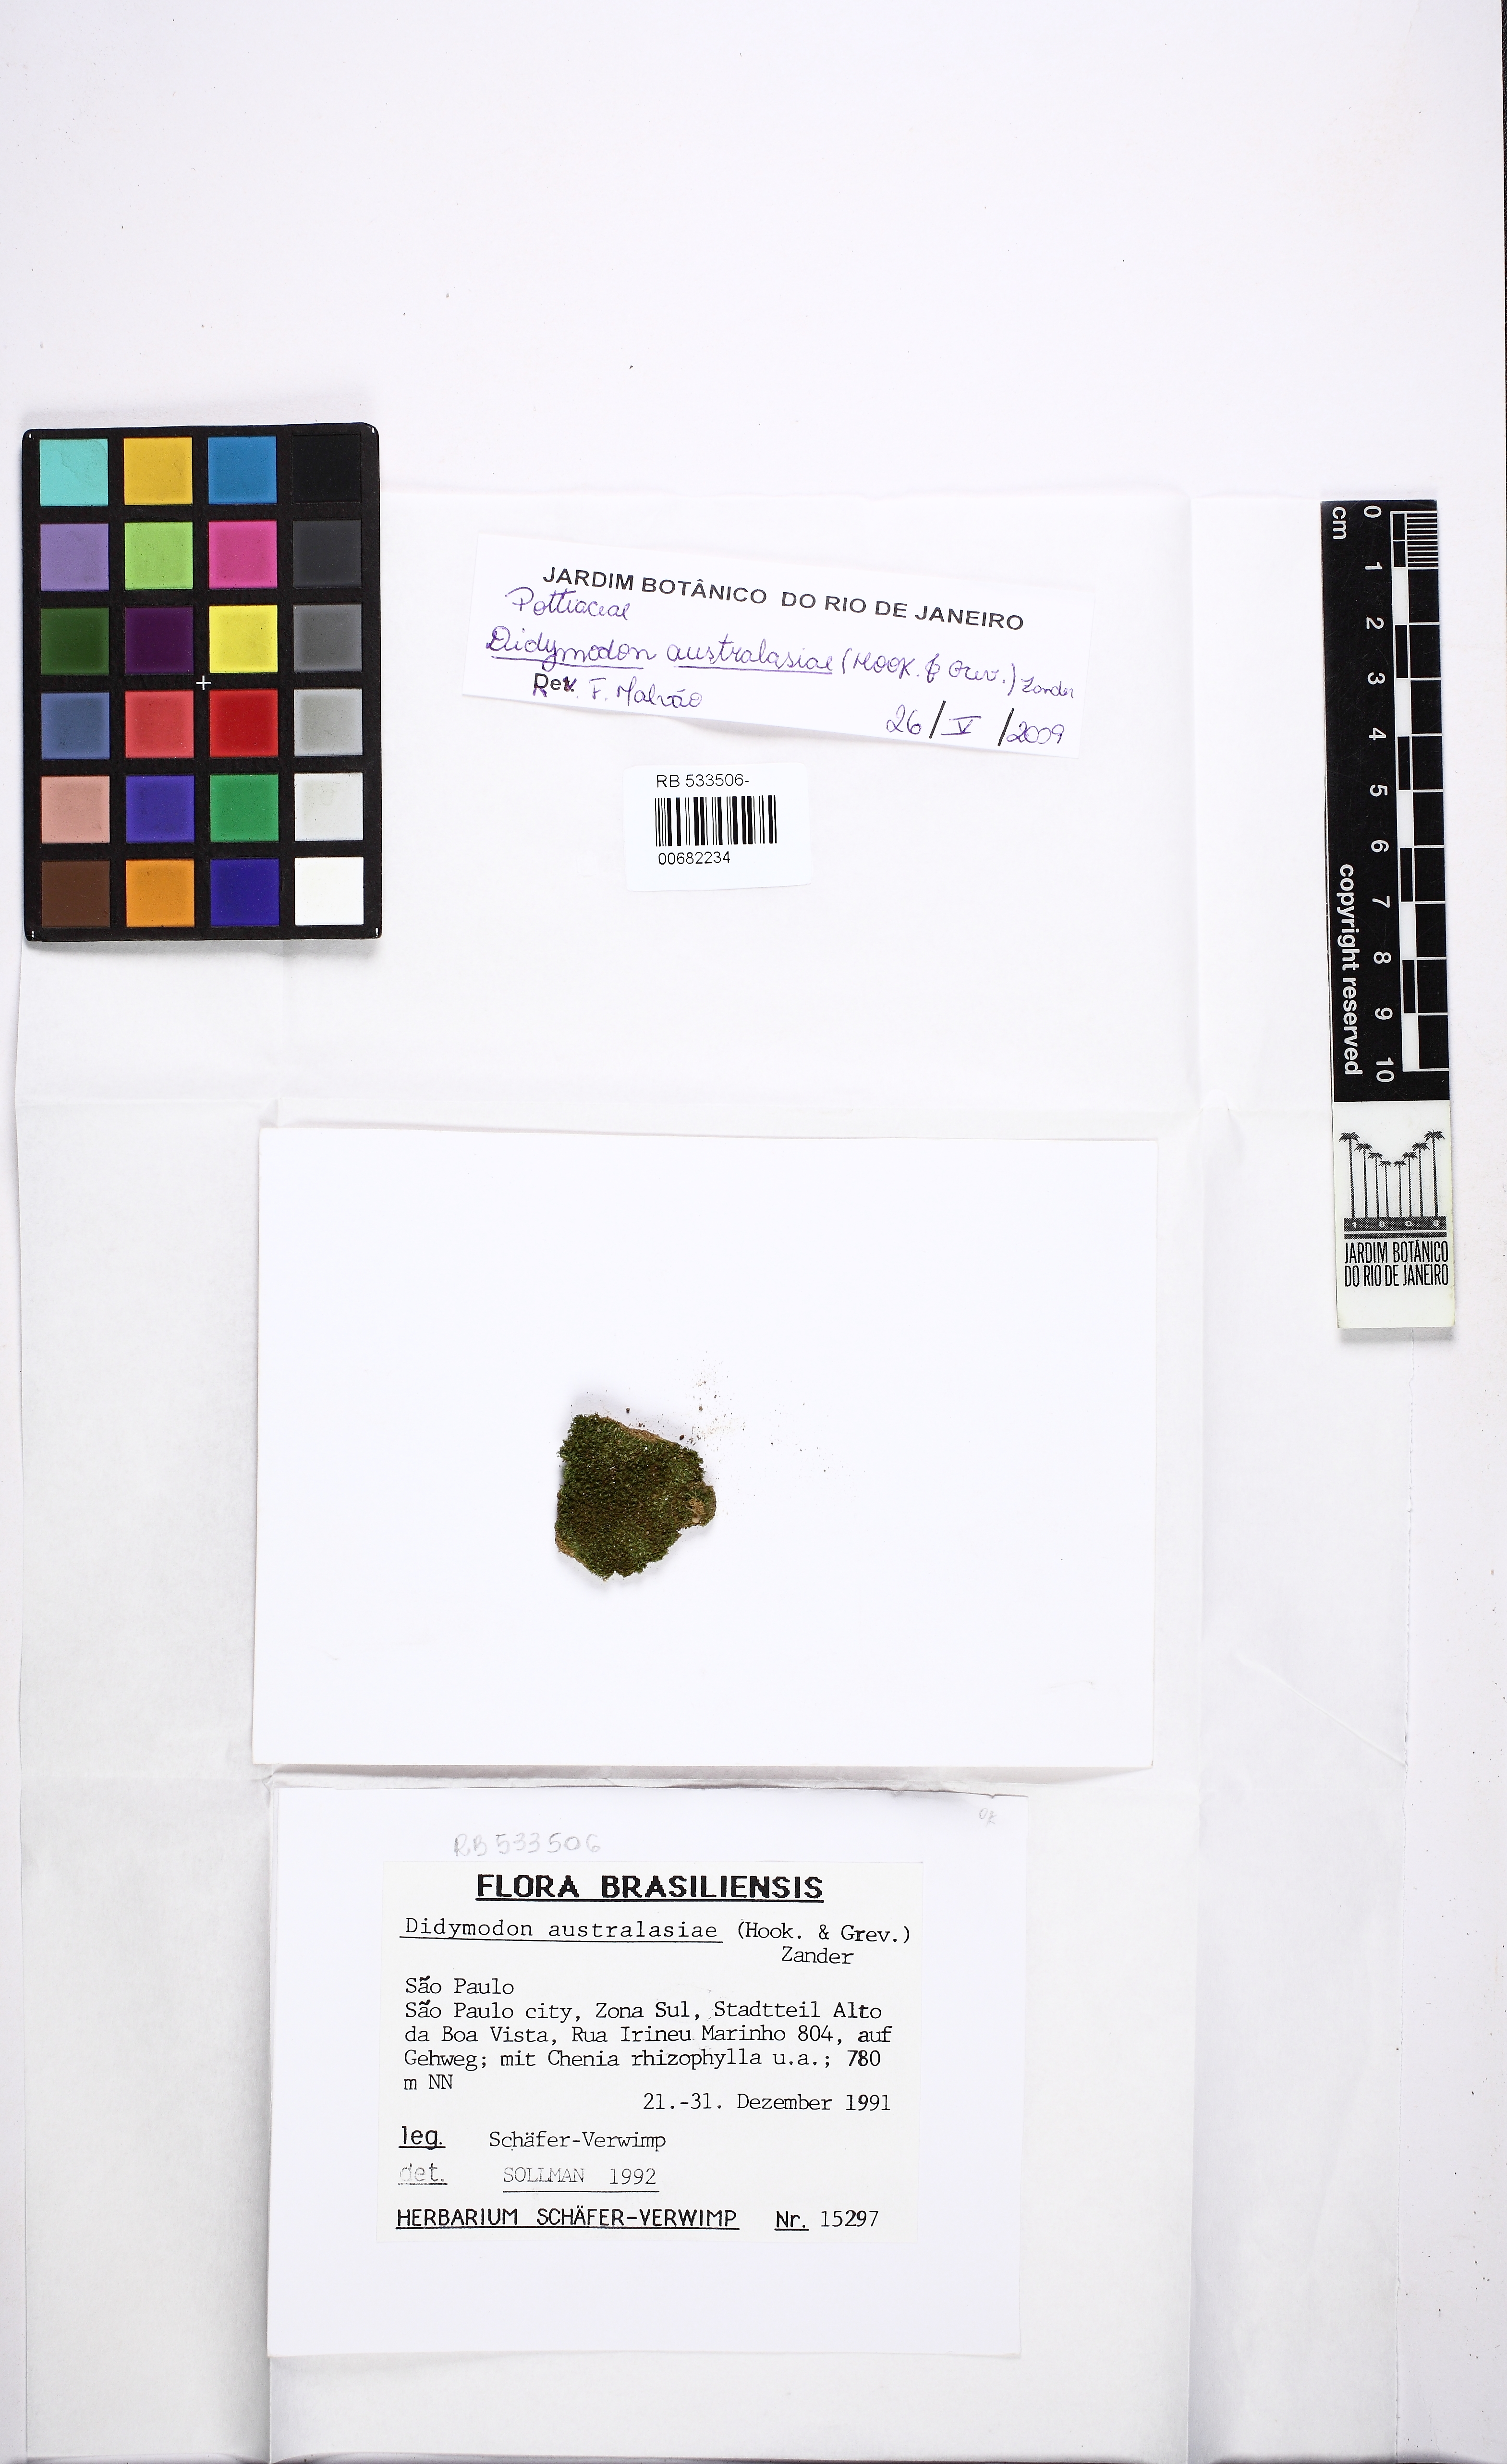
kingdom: Plantae
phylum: Bryophyta
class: Bryopsida
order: Pottiales
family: Pottiaceae
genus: Trichostomopsis
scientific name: Trichostomopsis australasiae
